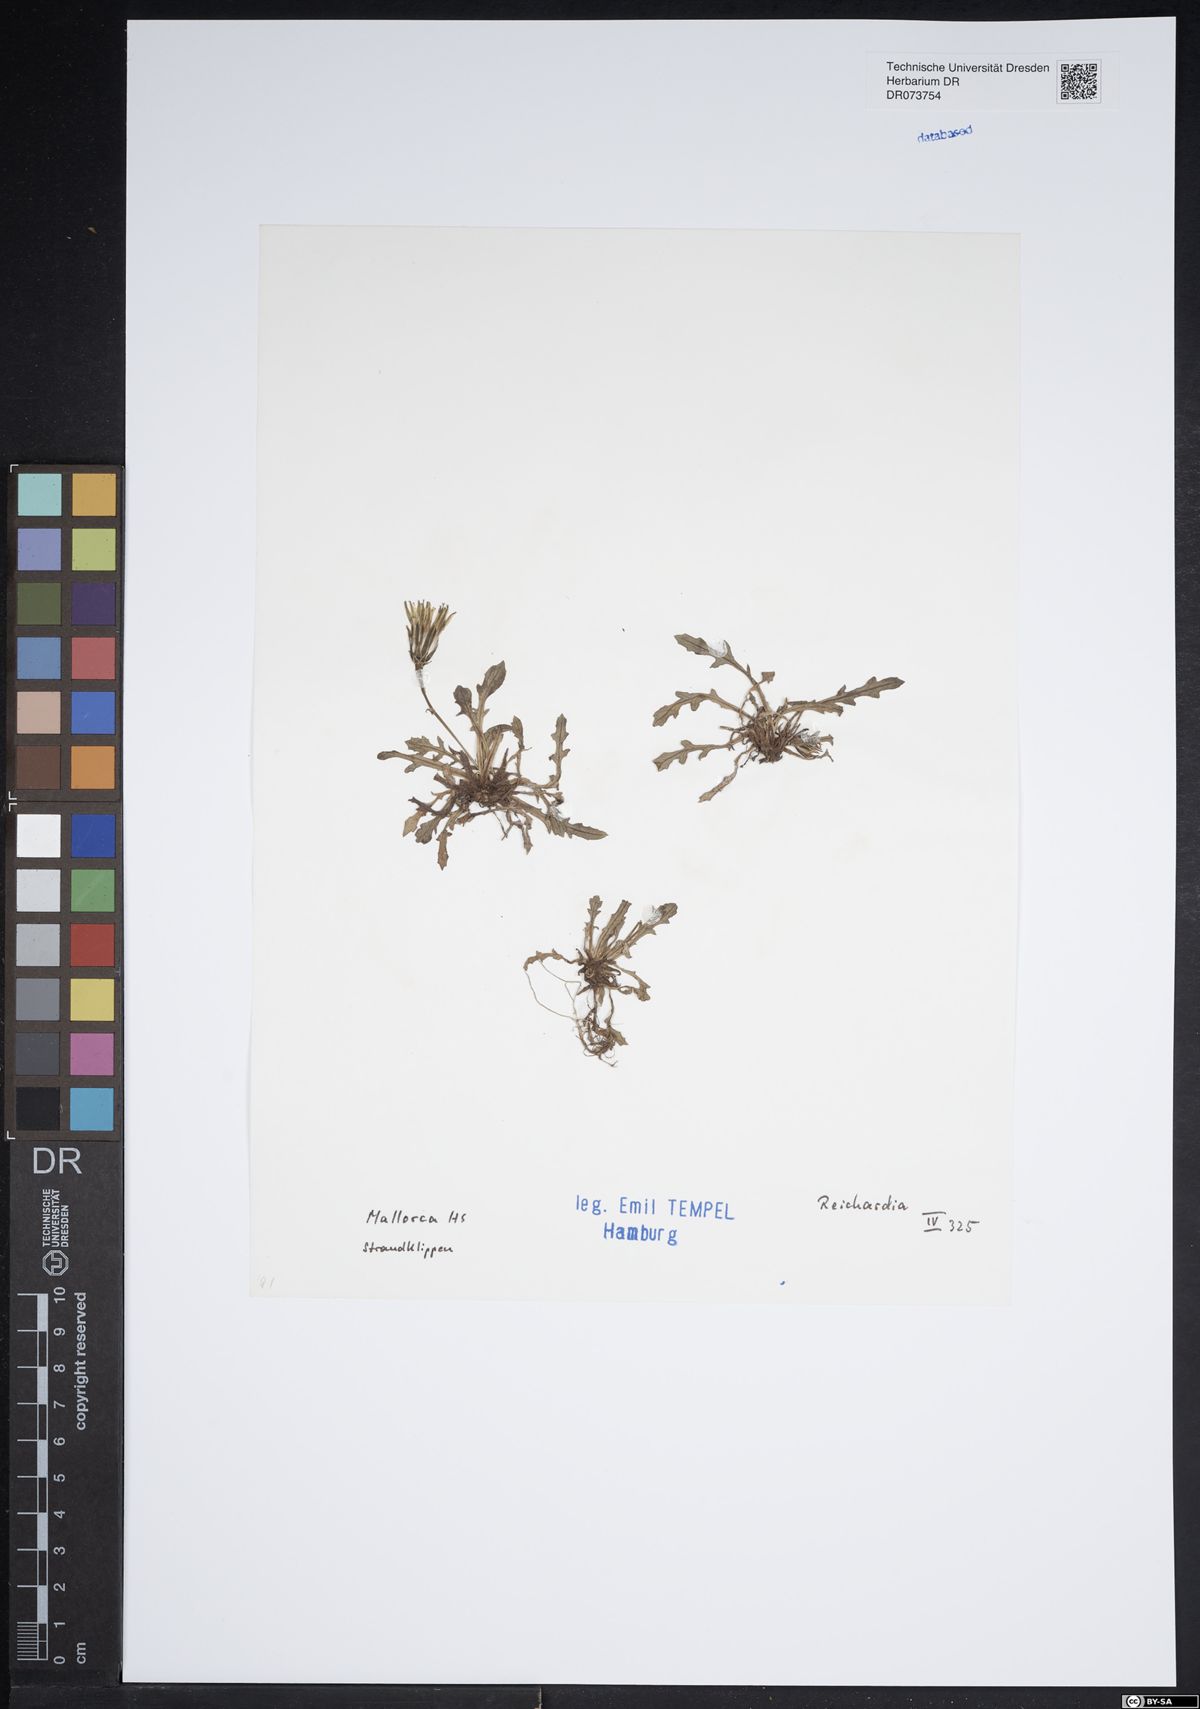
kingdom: Plantae
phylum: Tracheophyta
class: Magnoliopsida
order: Asterales
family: Asteraceae
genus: Reichardia
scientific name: Reichardia
